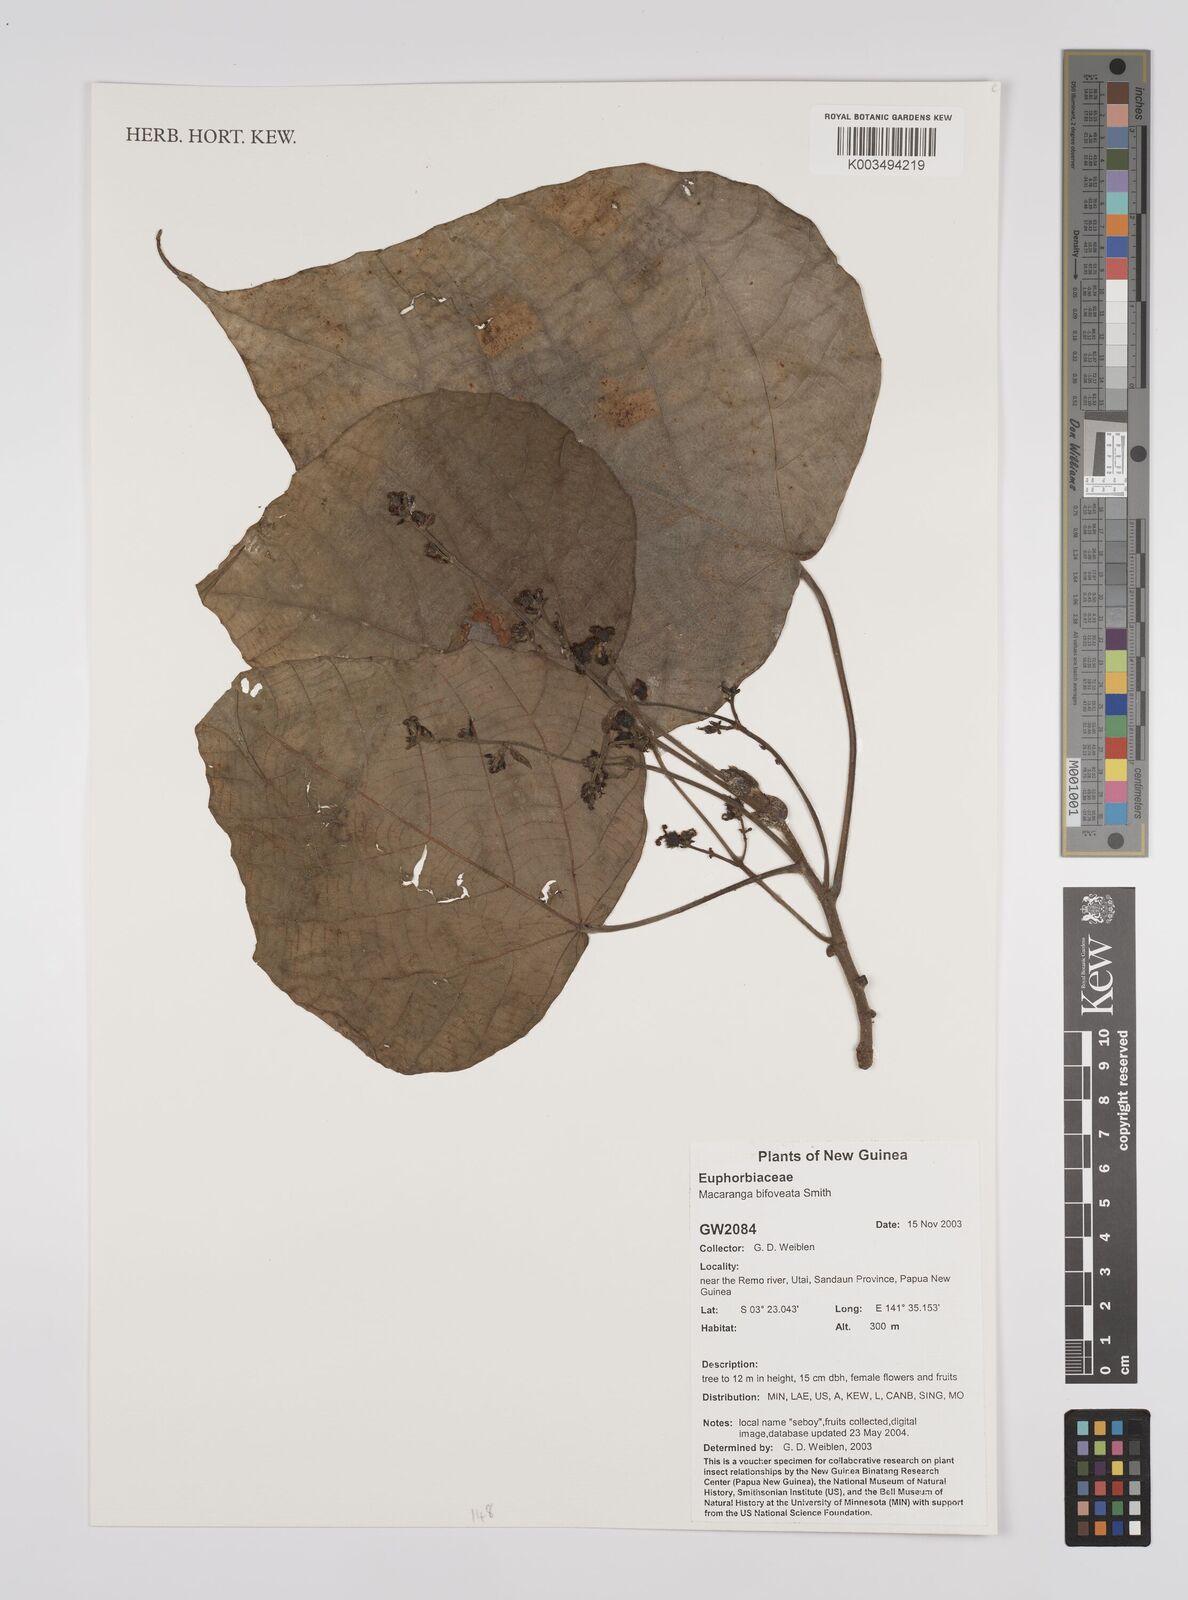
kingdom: Plantae
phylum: Tracheophyta
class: Magnoliopsida
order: Malpighiales
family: Euphorbiaceae
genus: Macaranga
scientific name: Macaranga bifoveata
